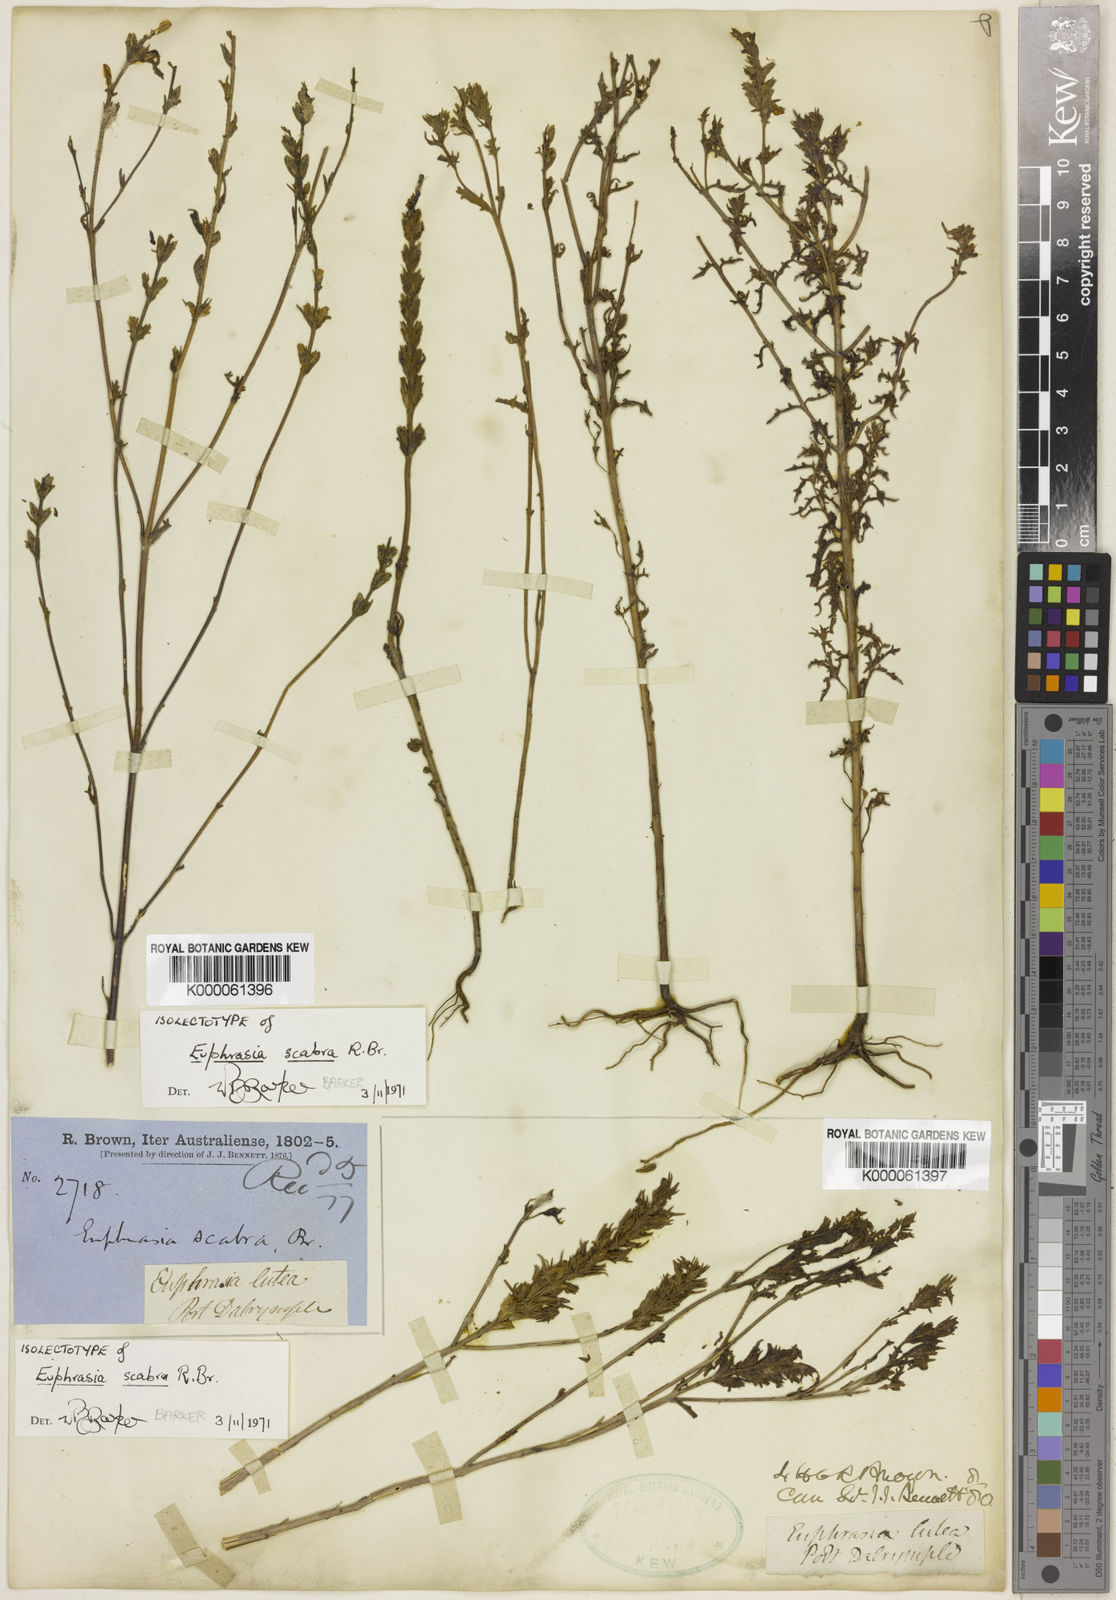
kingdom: Plantae
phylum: Tracheophyta
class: Magnoliopsida
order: Lamiales
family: Orobanchaceae
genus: Euphrasia
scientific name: Euphrasia scabra
